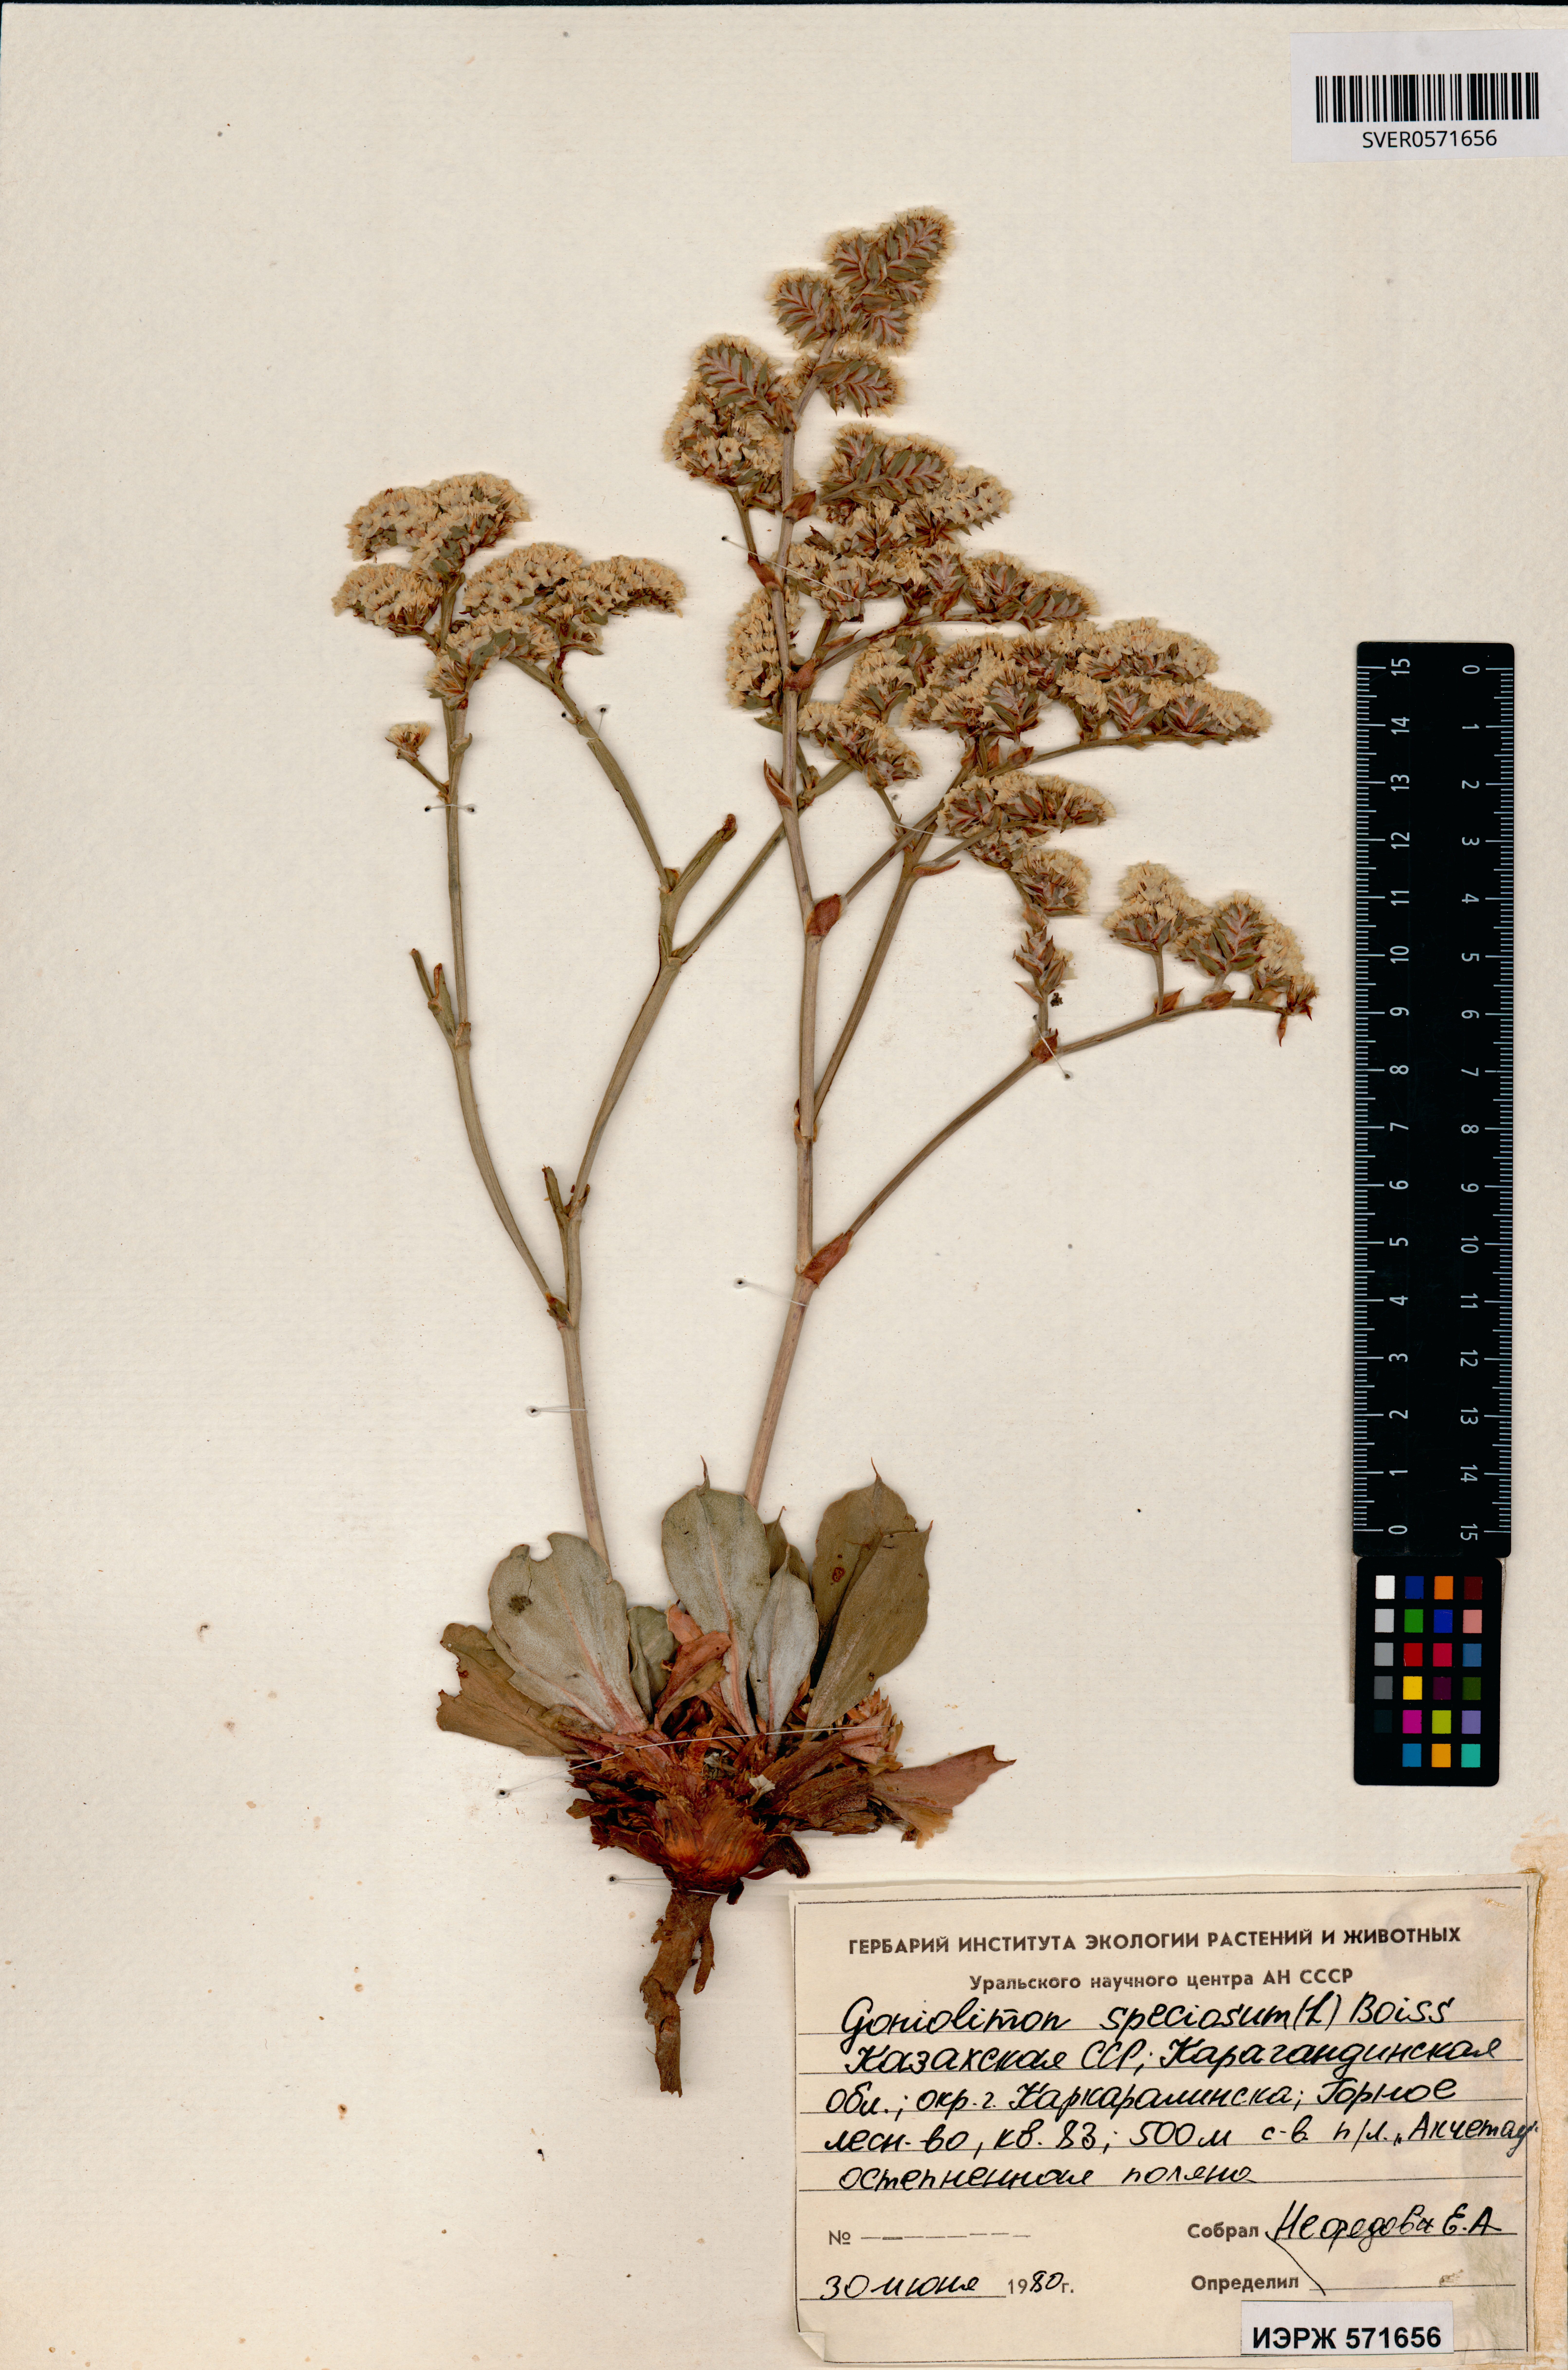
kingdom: Plantae
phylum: Tracheophyta
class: Magnoliopsida
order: Caryophyllales
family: Plumbaginaceae
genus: Goniolimon
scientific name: Goniolimon speciosum
